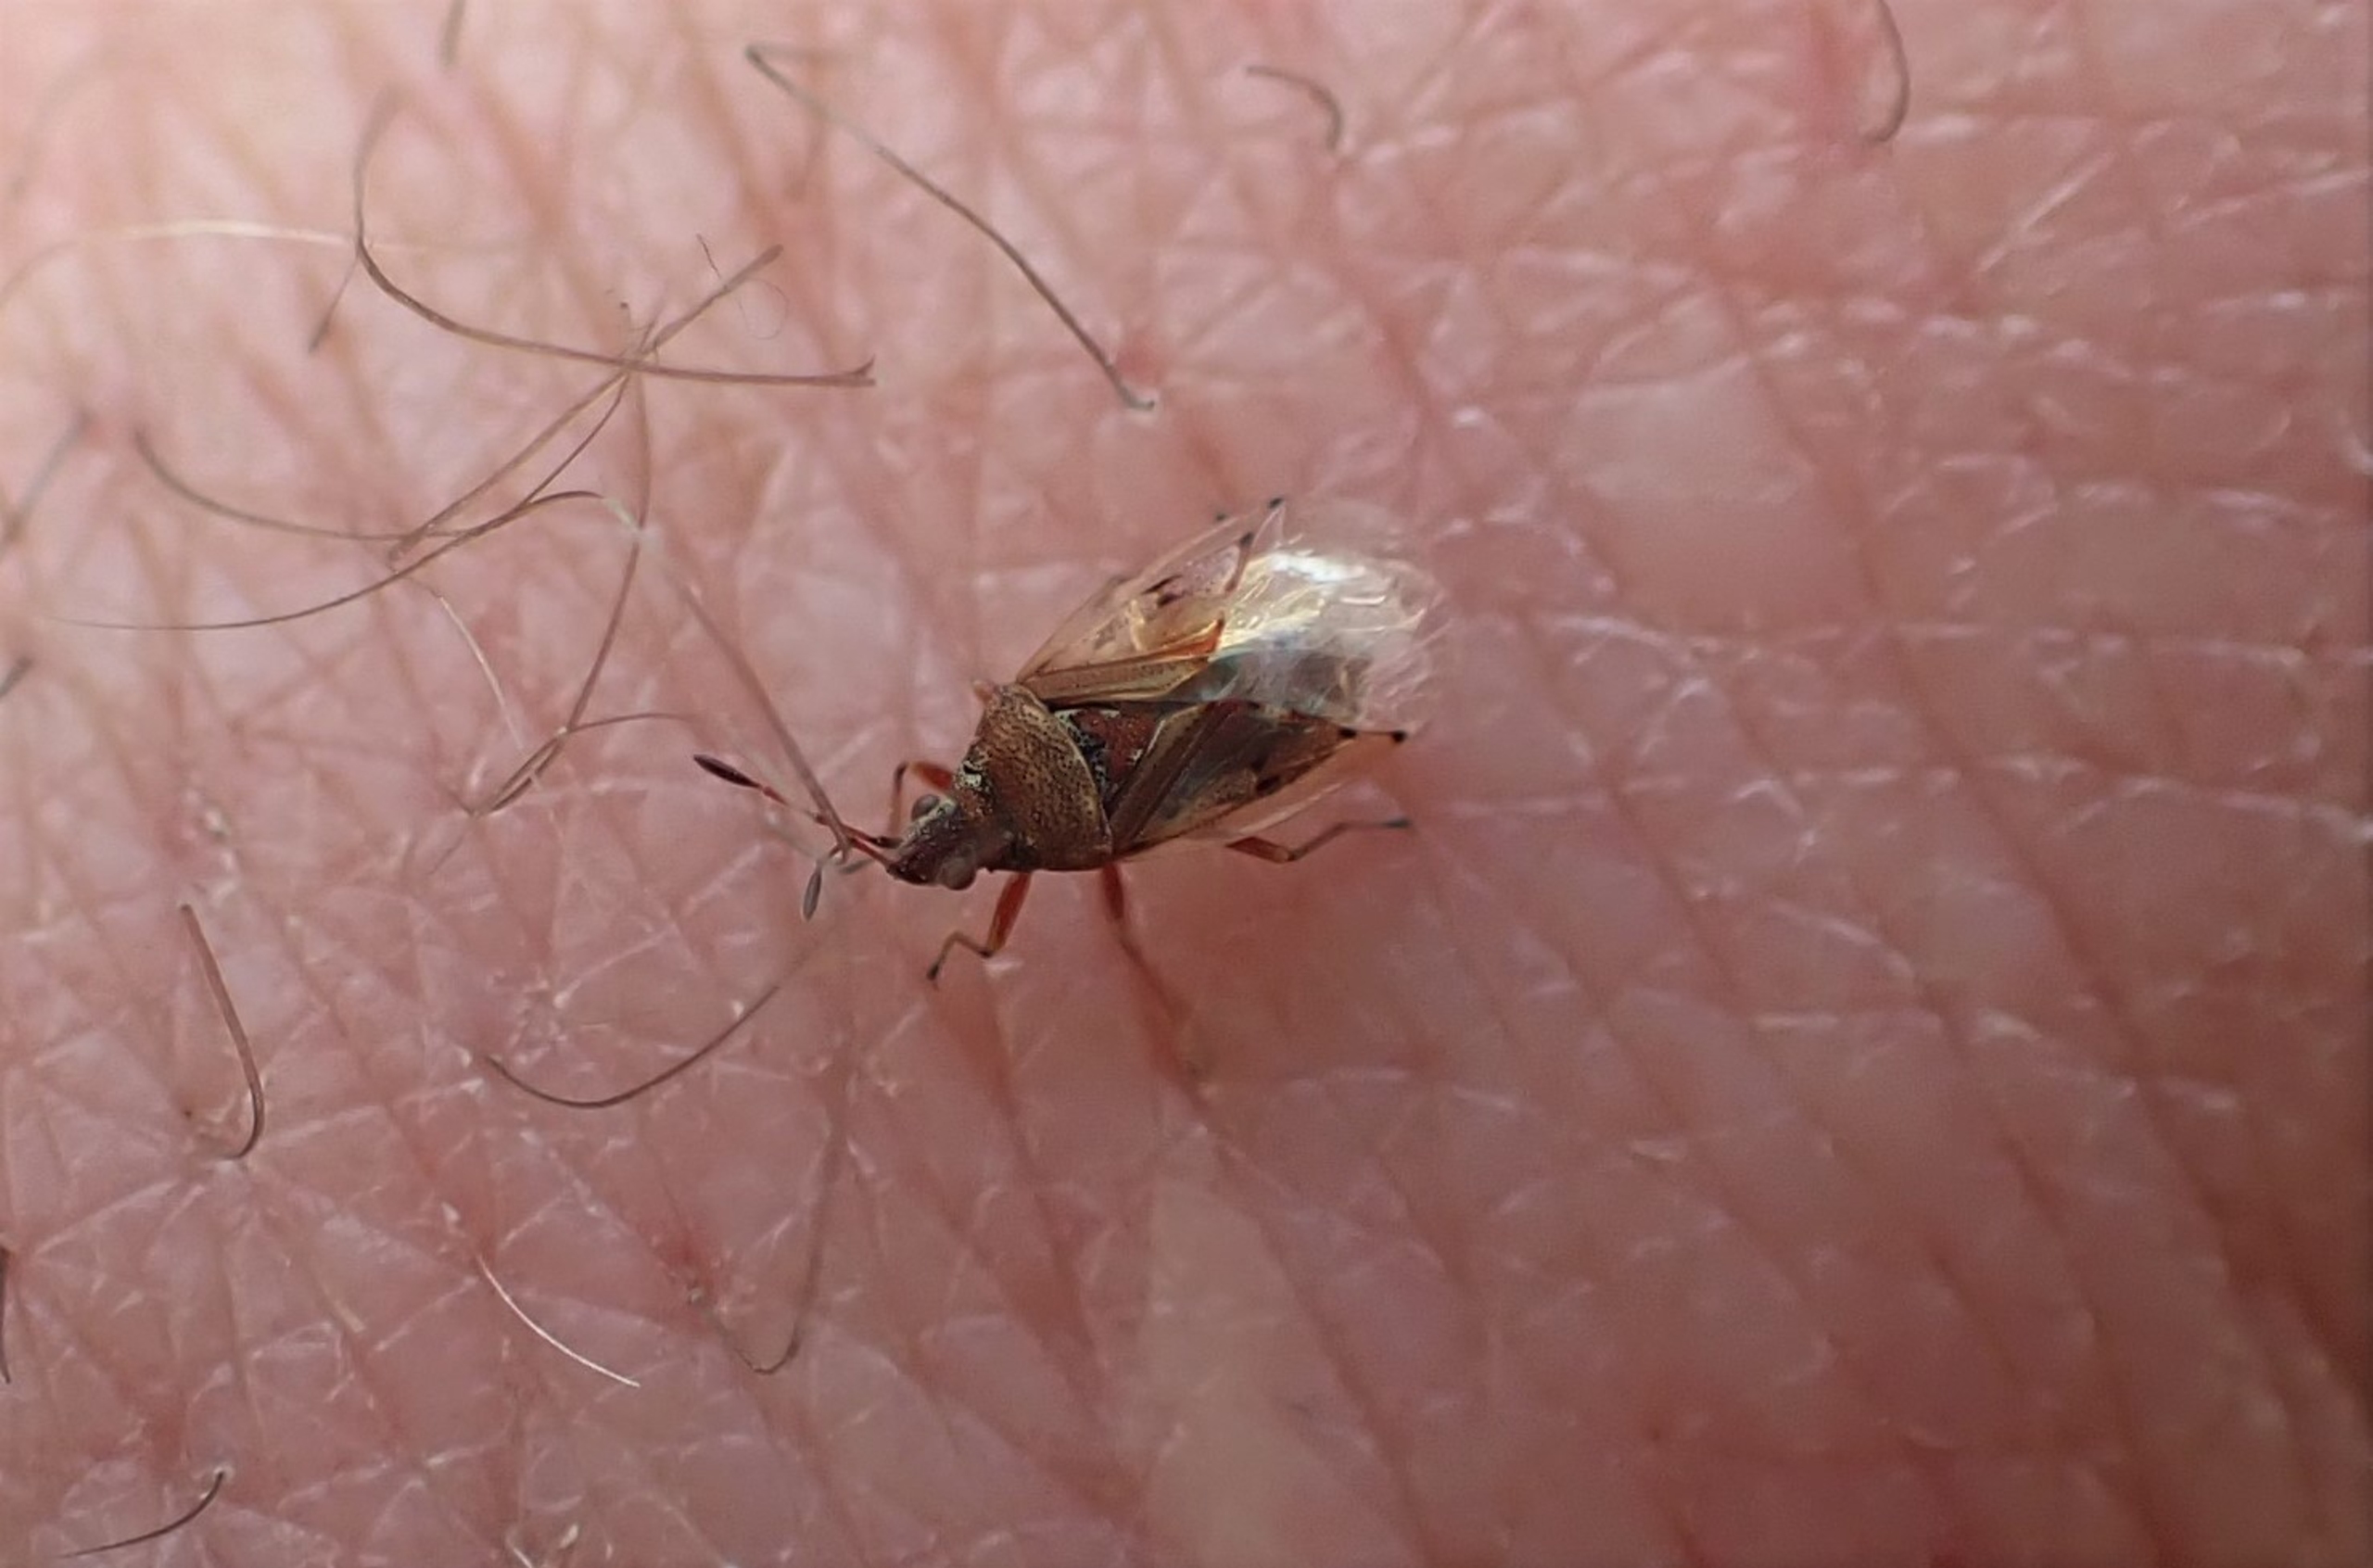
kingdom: Animalia
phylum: Arthropoda
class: Insecta
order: Hemiptera
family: Lygaeidae
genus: Kleidocerys
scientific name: Kleidocerys resedae
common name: Birkefrøtæge
